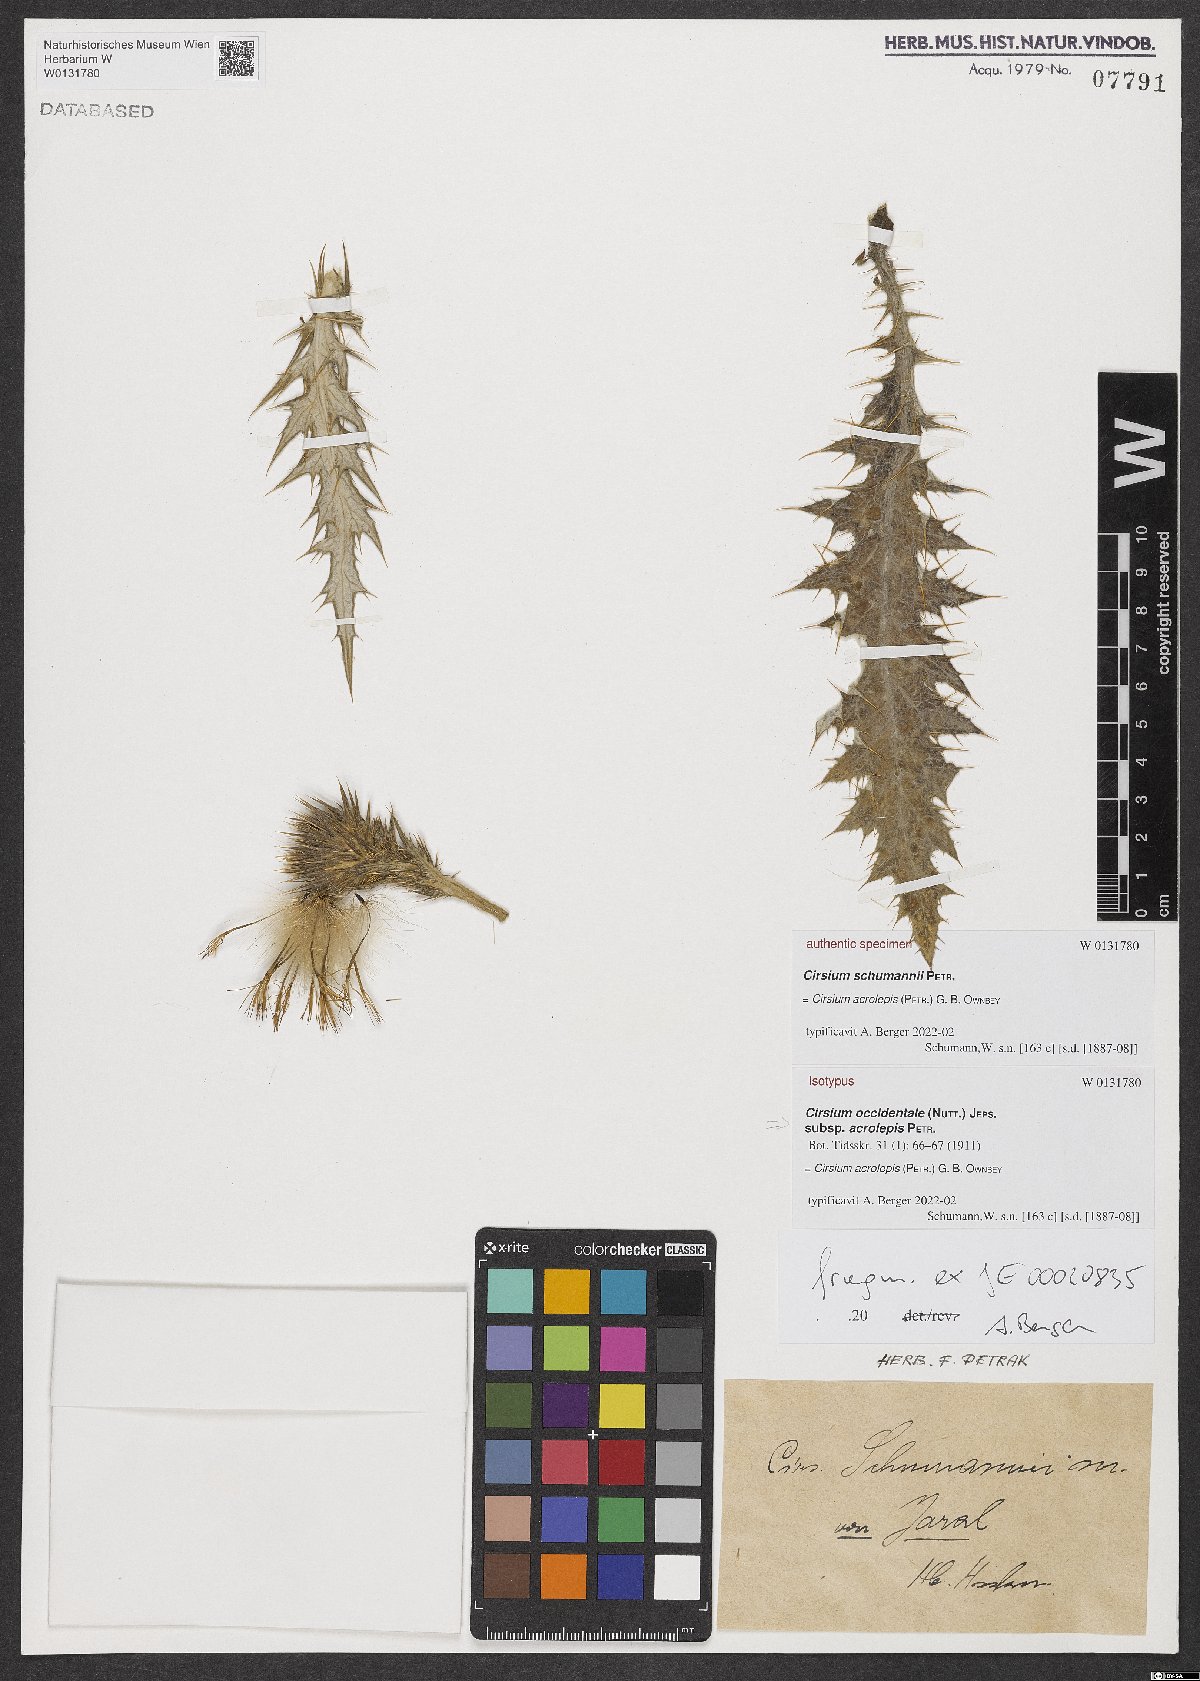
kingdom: Plantae
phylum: Tracheophyta
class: Magnoliopsida
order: Asterales
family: Asteraceae
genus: Cirsium
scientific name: Cirsium acrolepis
